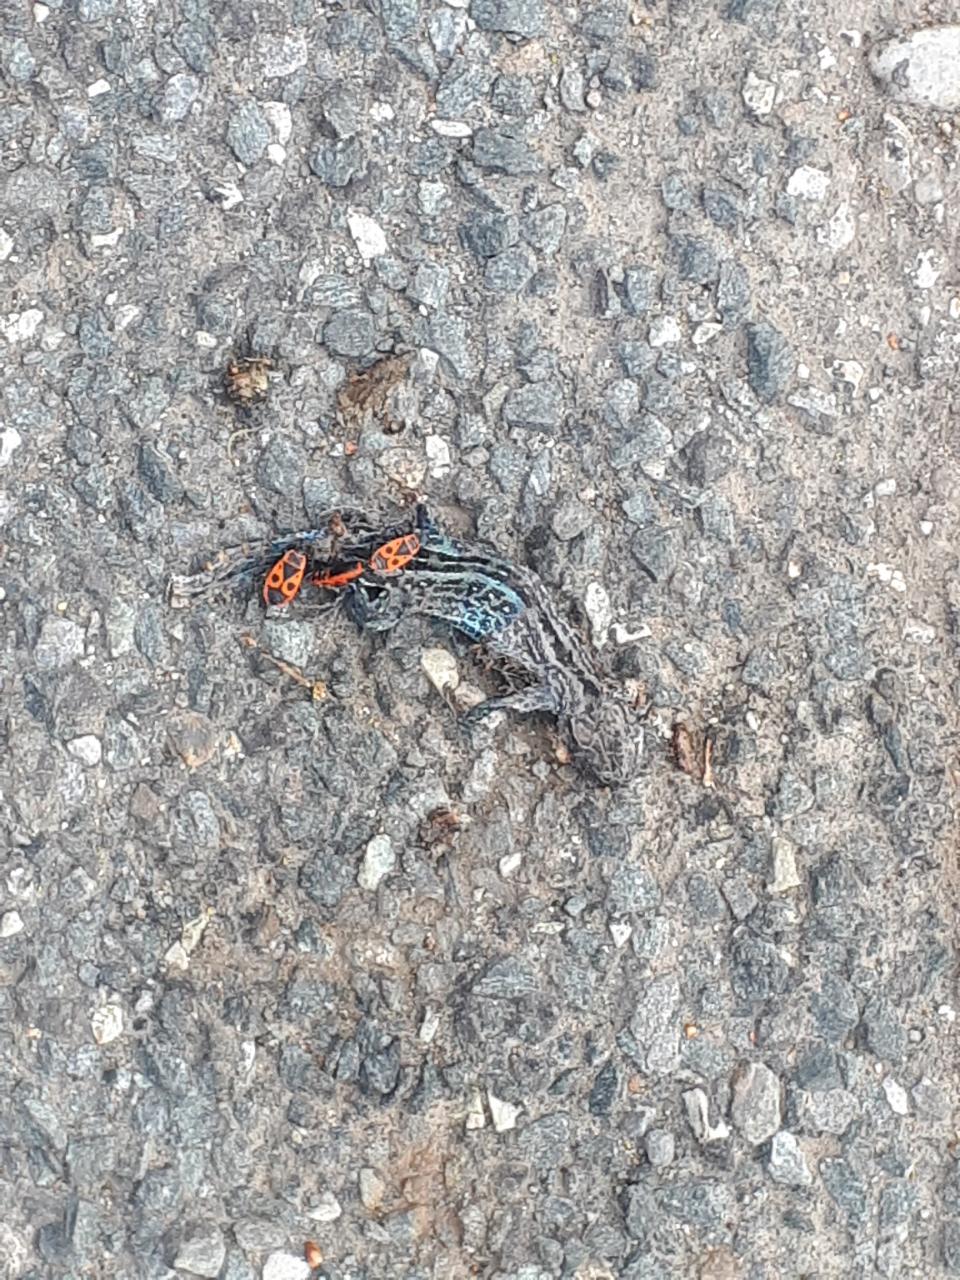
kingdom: Animalia
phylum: Chordata
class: Squamata
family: Lacertidae
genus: Lacerta
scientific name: Lacerta agilis
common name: Sand lizard
